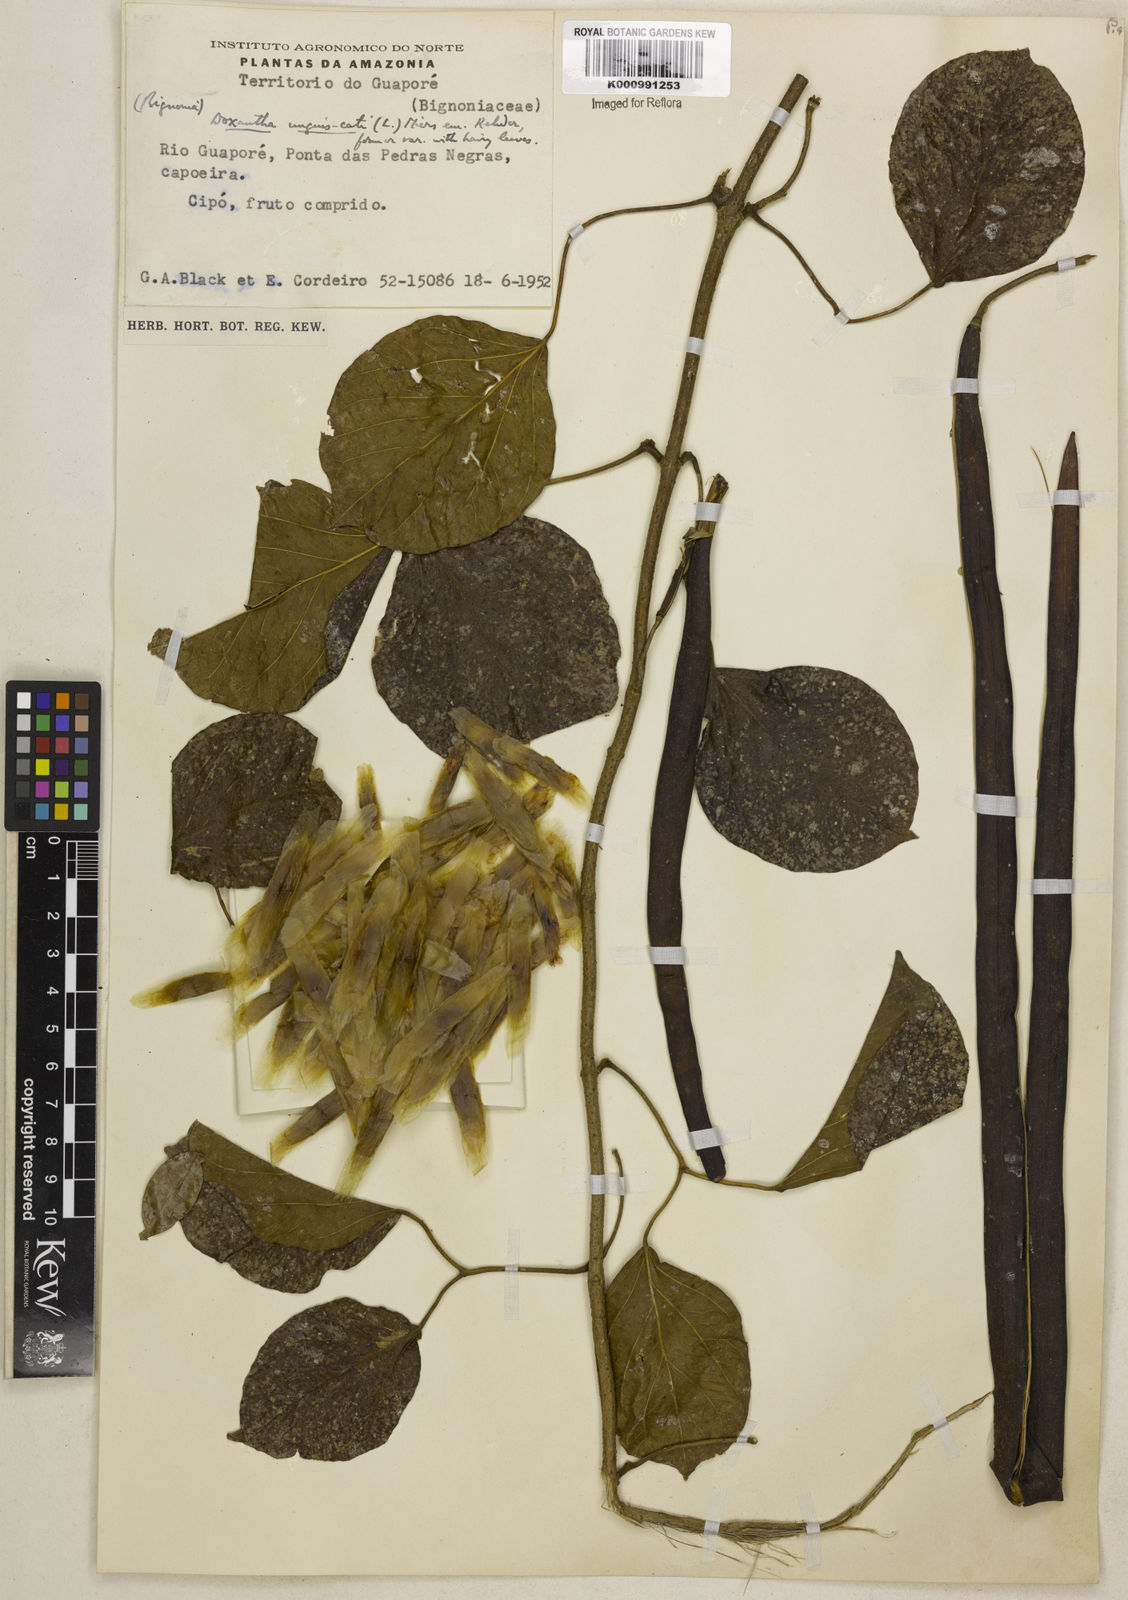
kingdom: Plantae
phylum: Tracheophyta
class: Magnoliopsida
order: Lamiales
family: Bignoniaceae
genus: Dolichandra
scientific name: Dolichandra unguis-cati
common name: Catclaw vine
